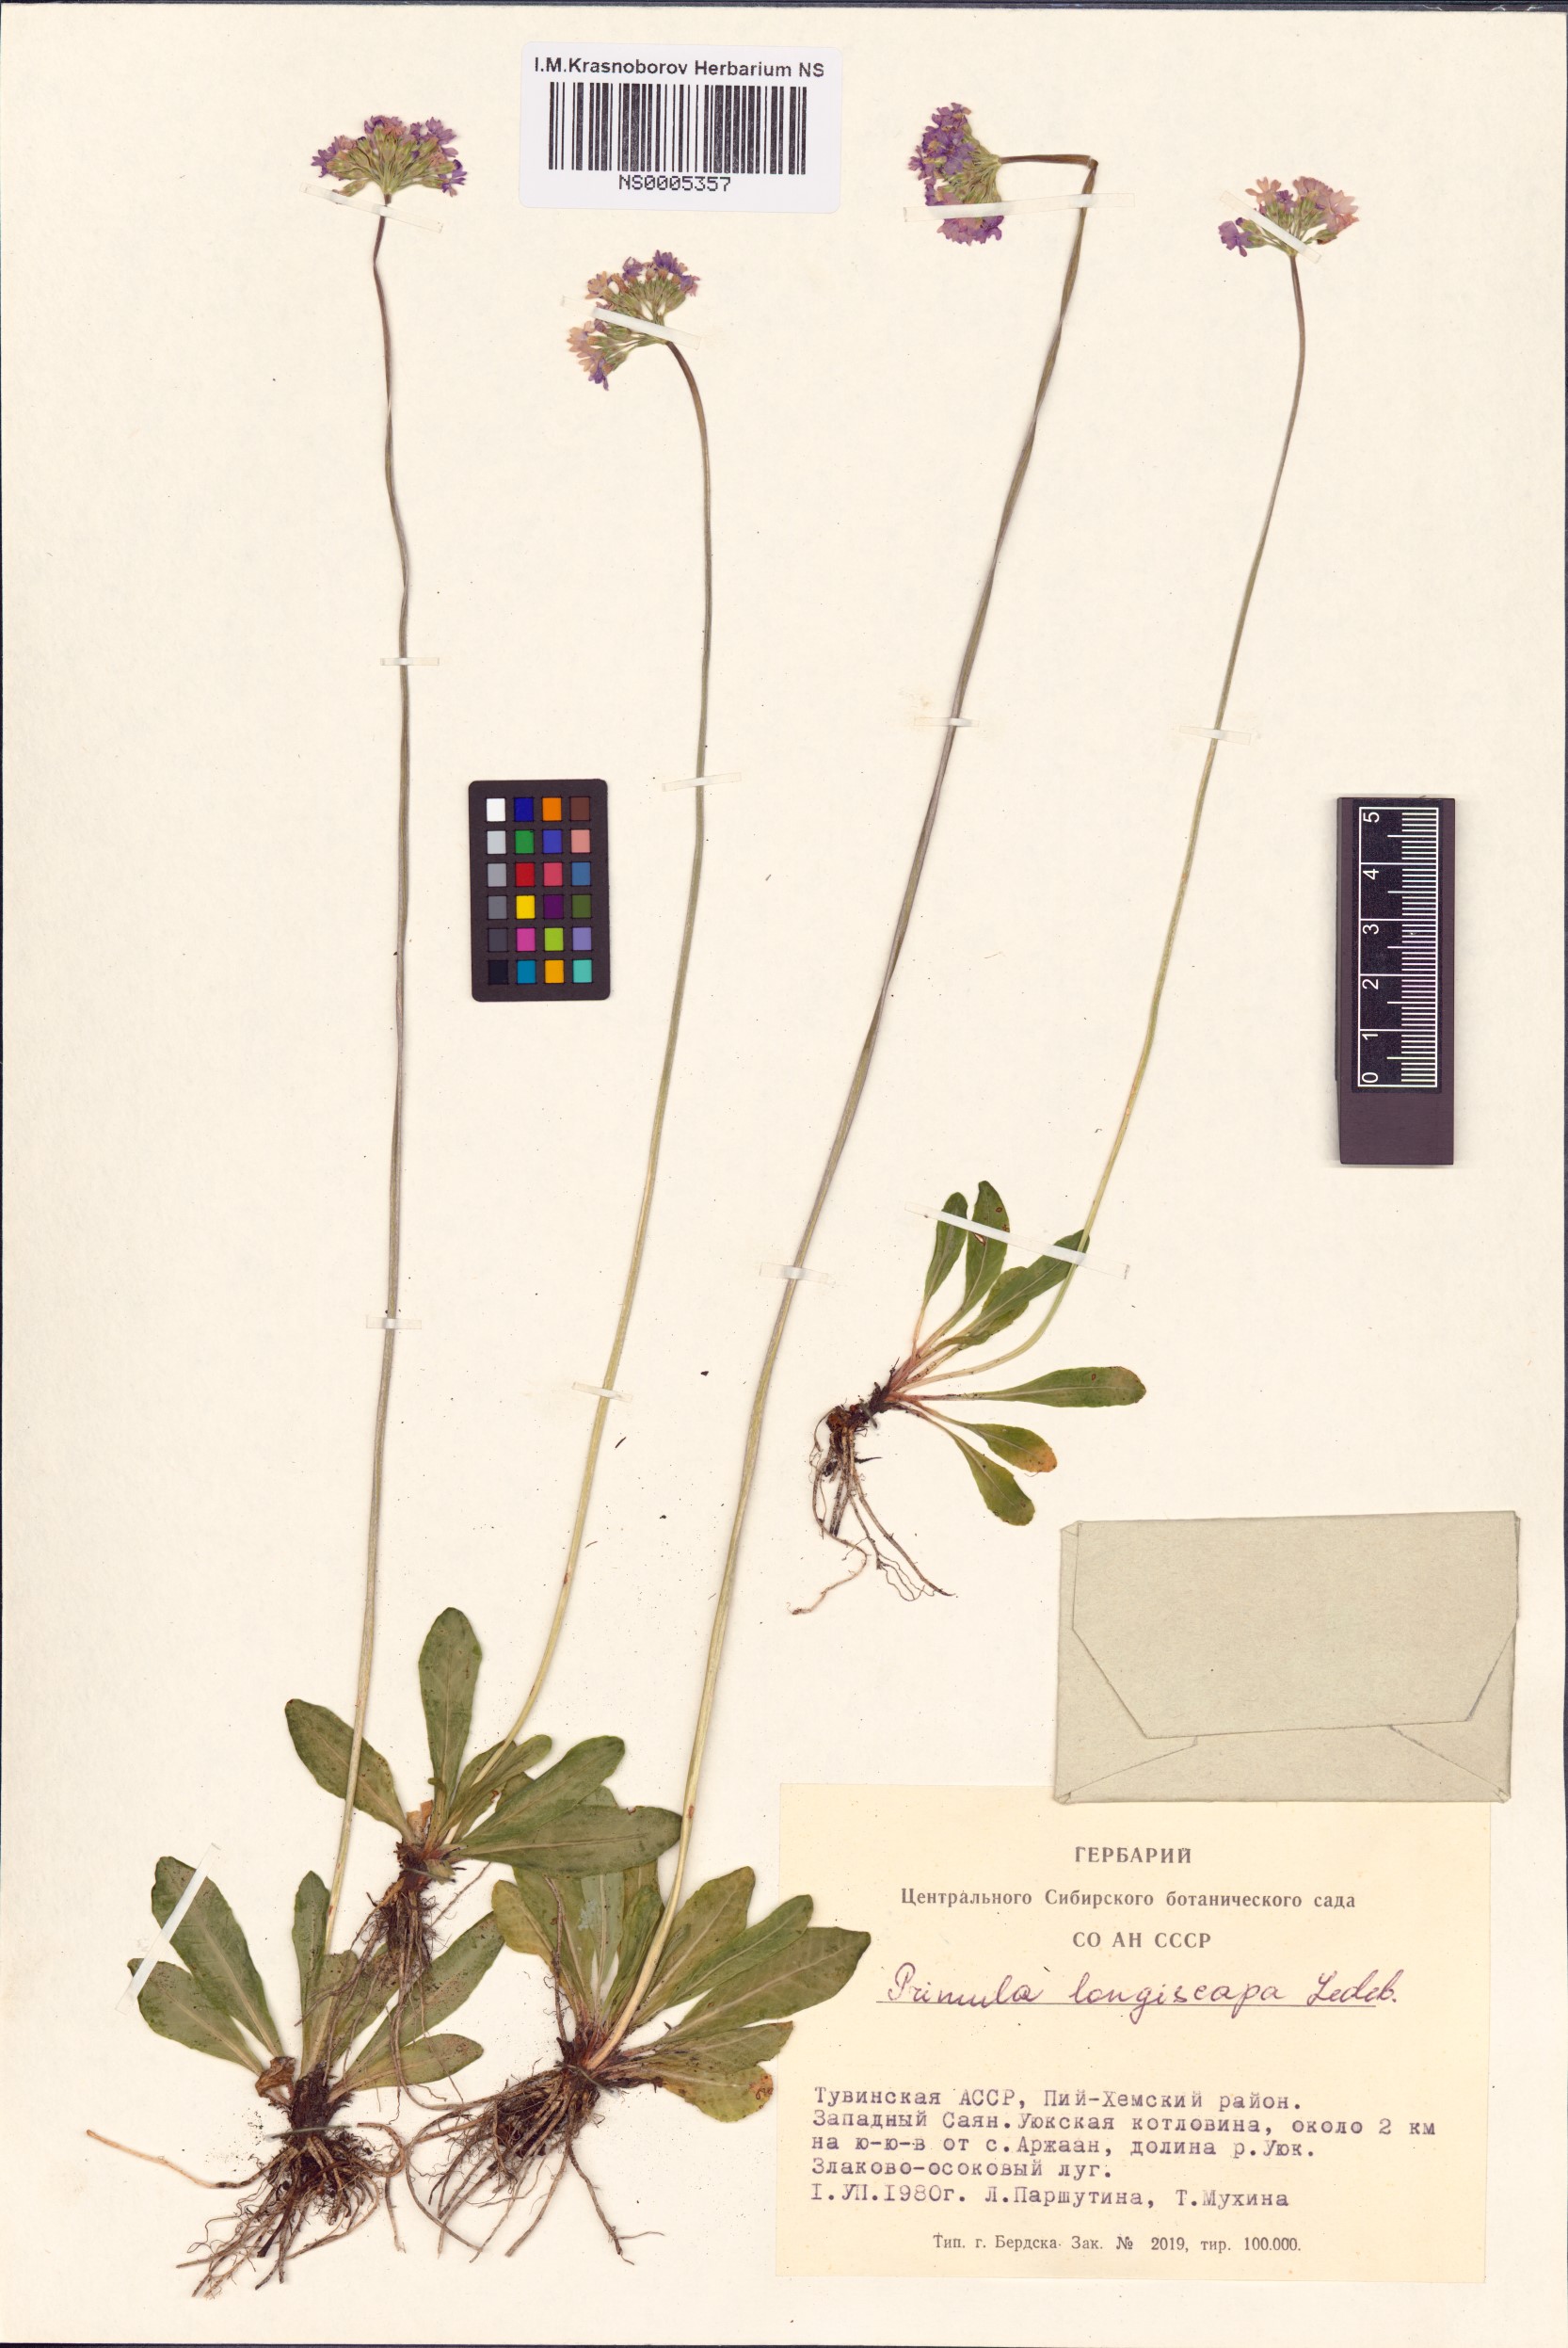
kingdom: Plantae
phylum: Tracheophyta
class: Magnoliopsida
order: Ericales
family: Primulaceae
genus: Primula
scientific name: Primula longiscapa
